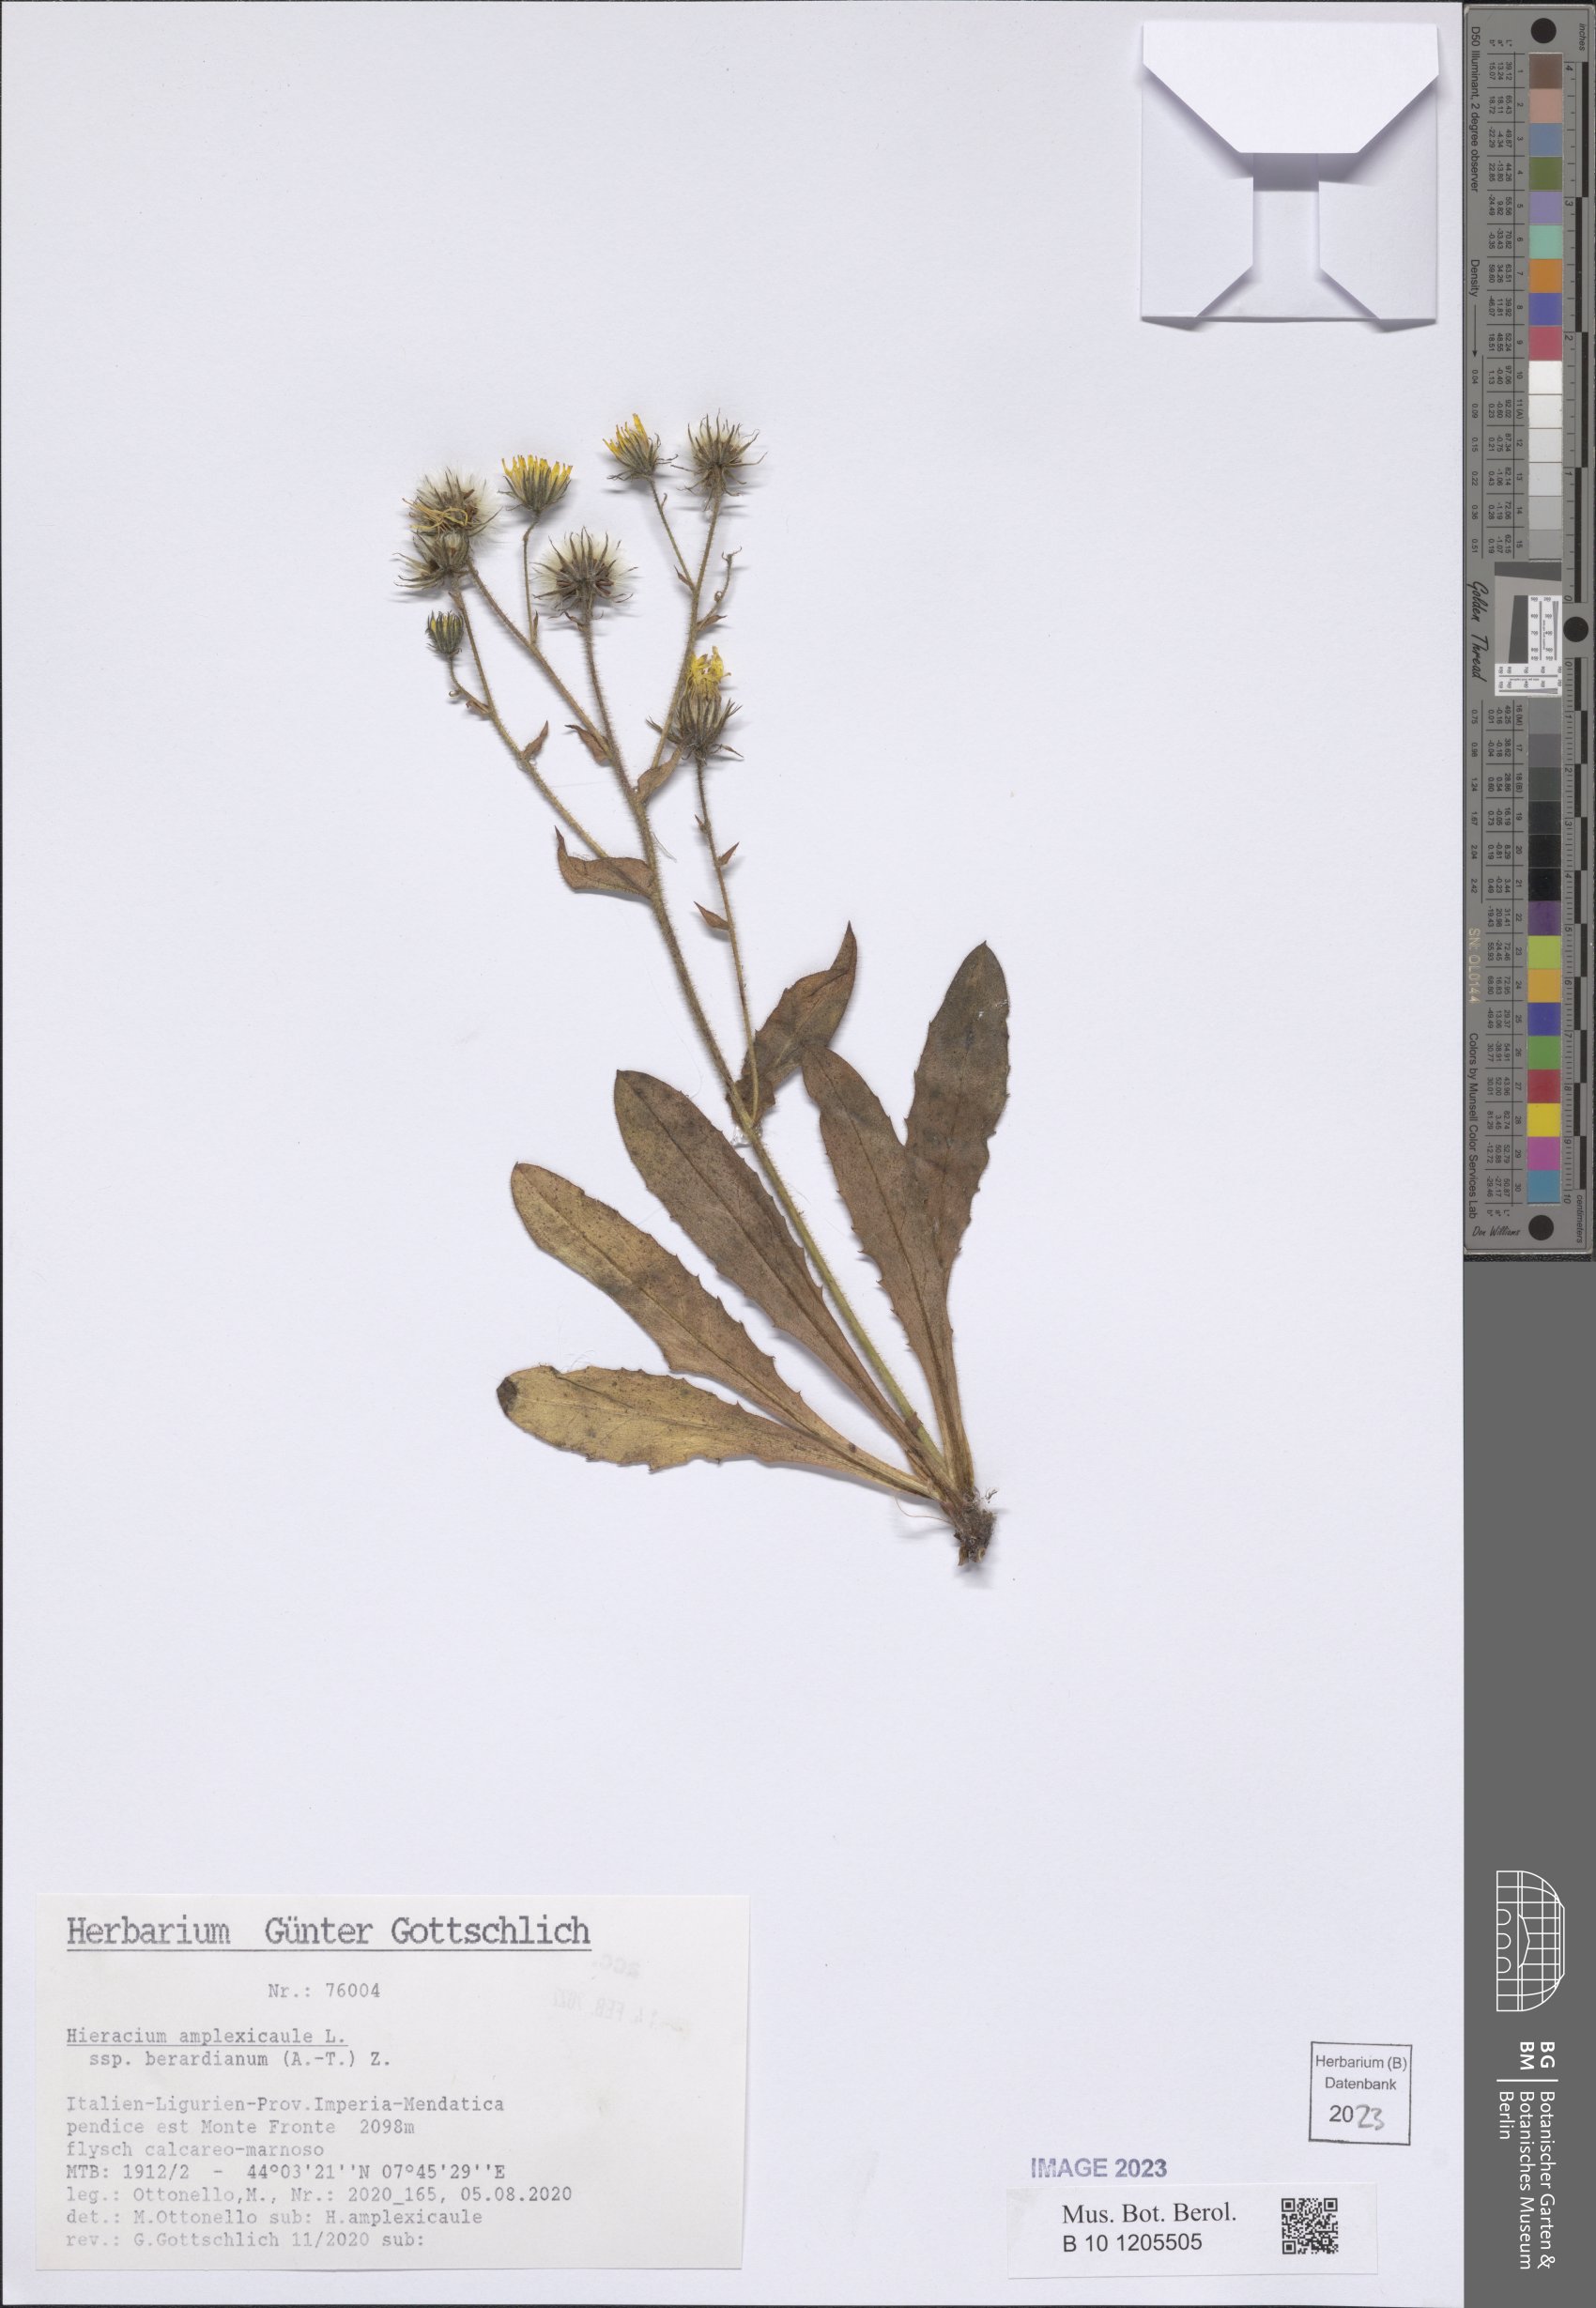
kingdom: Plantae
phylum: Tracheophyta
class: Magnoliopsida
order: Asterales
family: Asteraceae
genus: Hieracium
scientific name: Hieracium amplexicaule
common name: Sticky hawkweed
